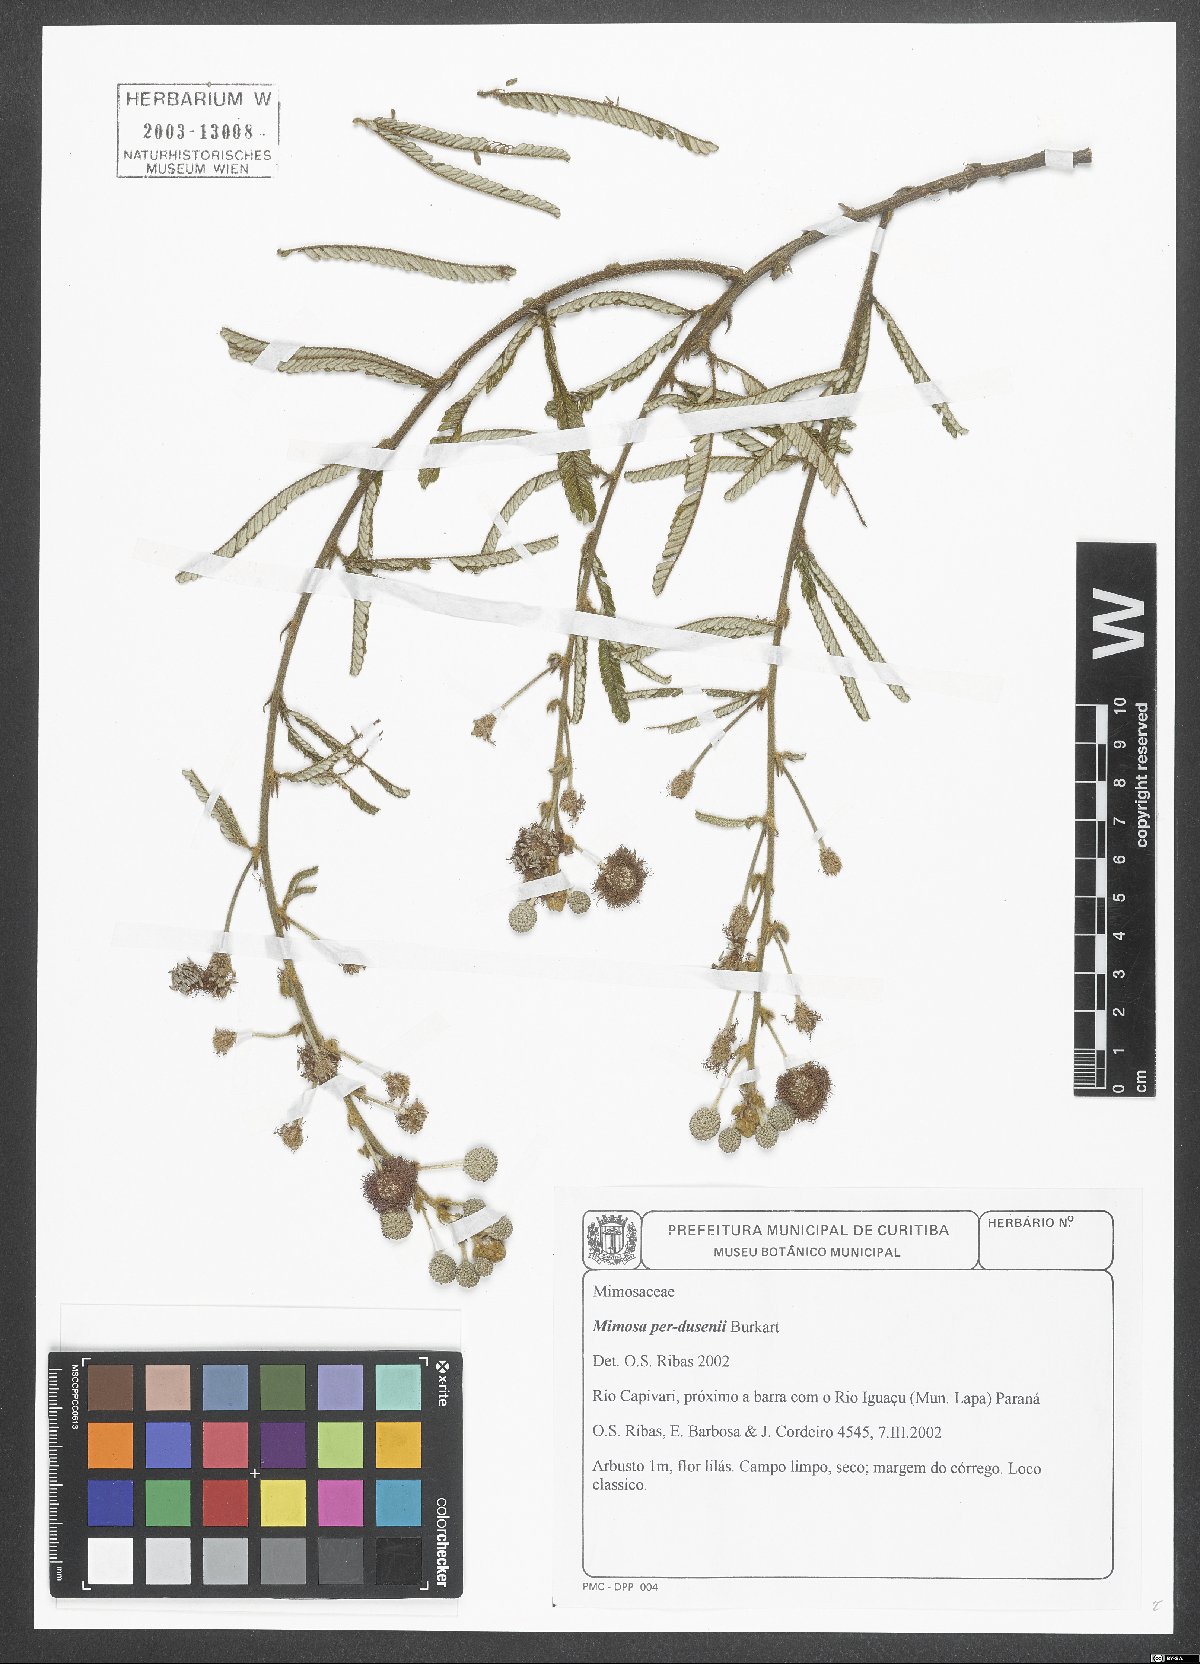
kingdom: Plantae
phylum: Tracheophyta
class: Magnoliopsida
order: Fabales
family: Fabaceae
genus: Mimosa
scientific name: Mimosa per-dusenii
